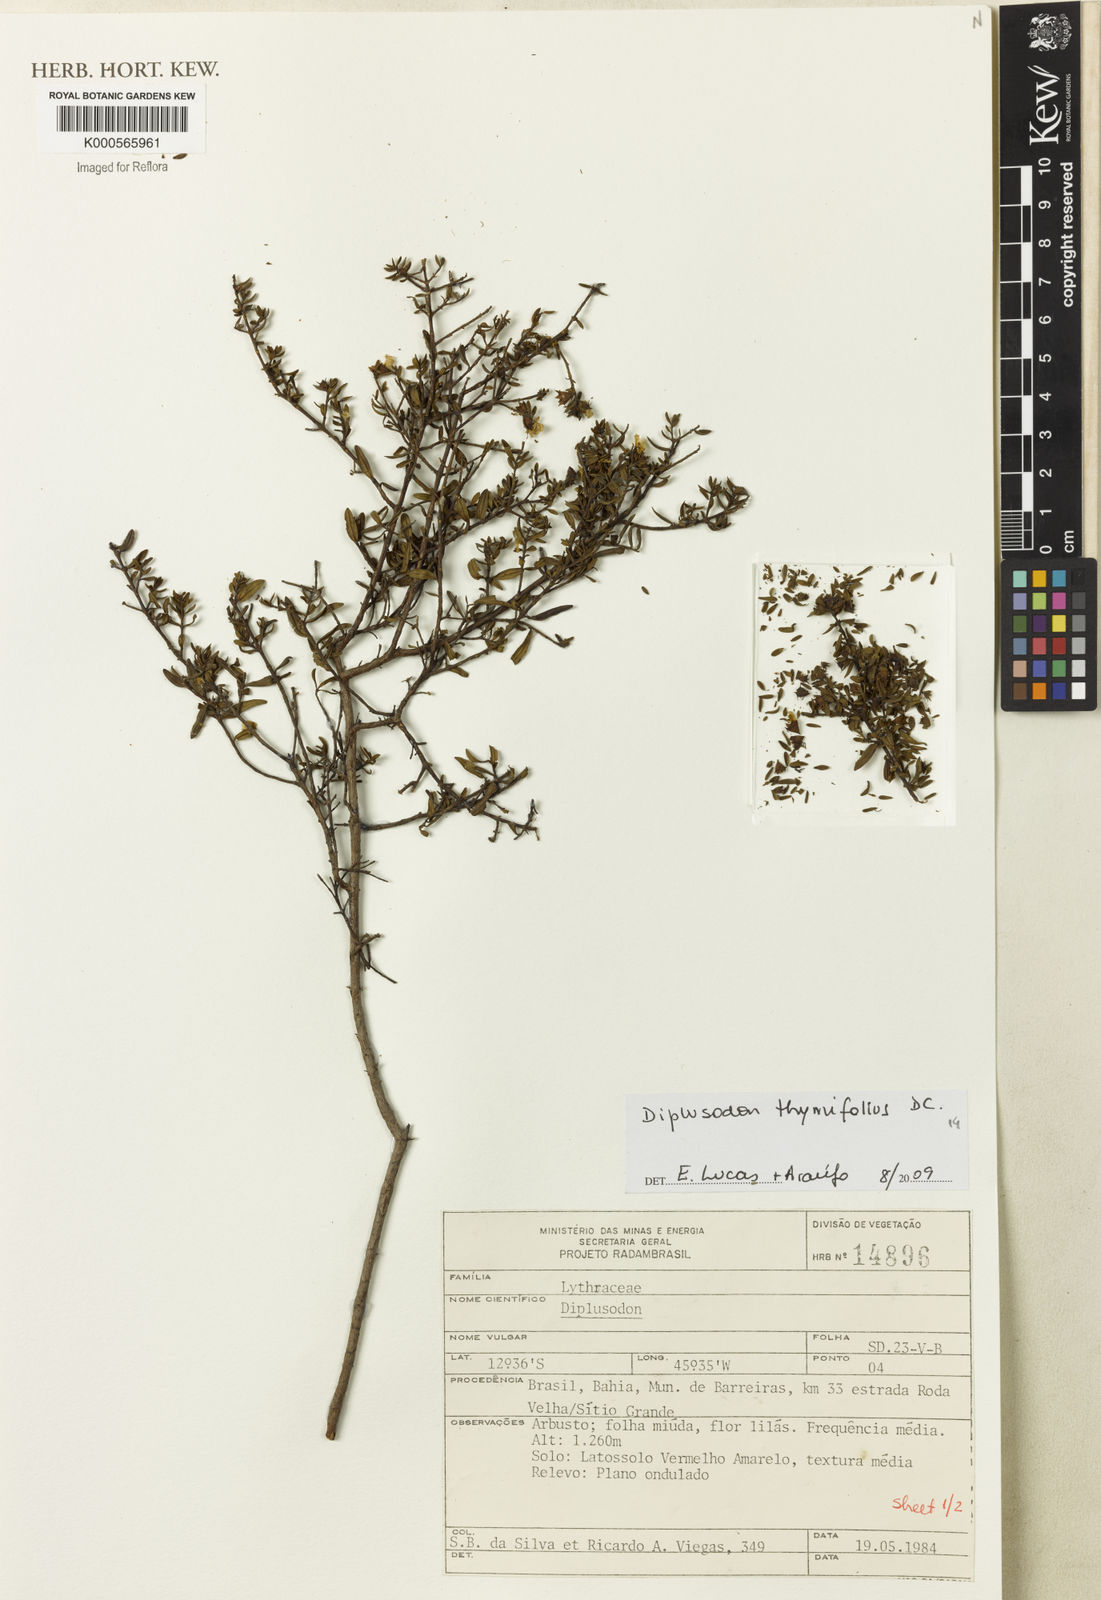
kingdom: Plantae
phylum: Tracheophyta
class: Magnoliopsida
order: Myrtales
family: Lythraceae
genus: Diplusodon
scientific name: Diplusodon thymifolius
